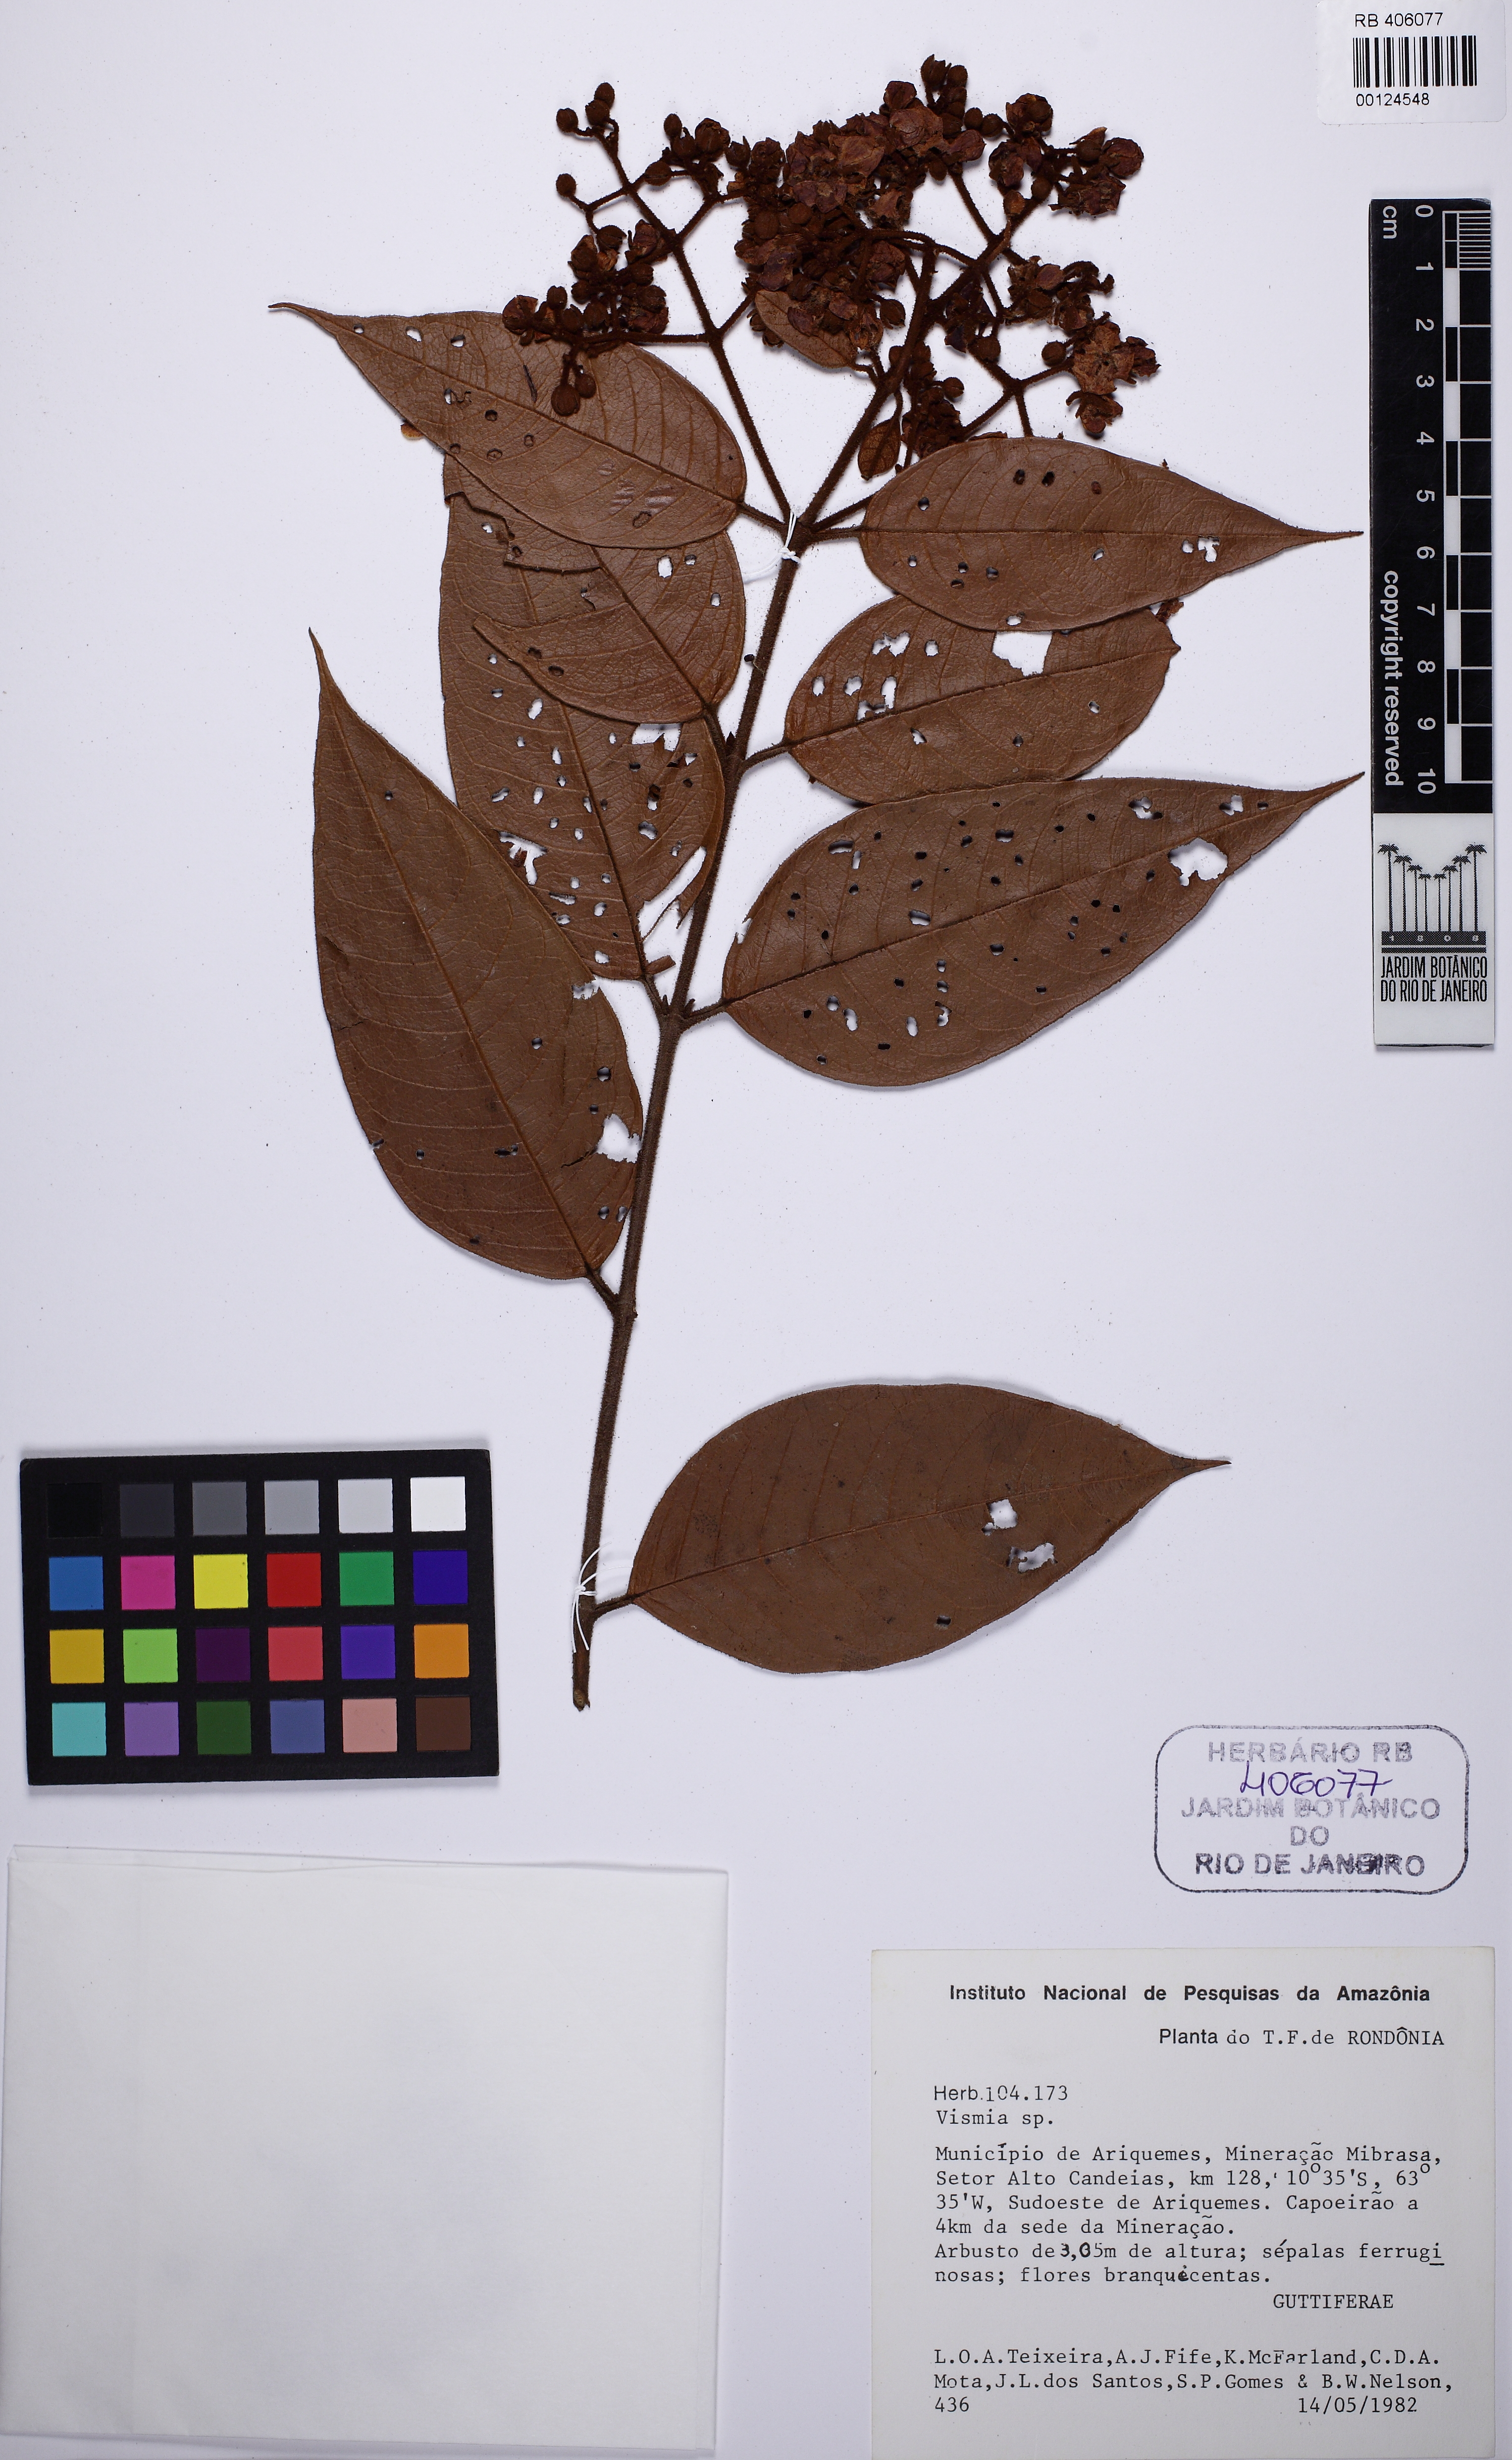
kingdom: Plantae
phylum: Tracheophyta
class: Magnoliopsida
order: Malpighiales
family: Hypericaceae
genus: Vismia
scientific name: Vismia bemerguii
